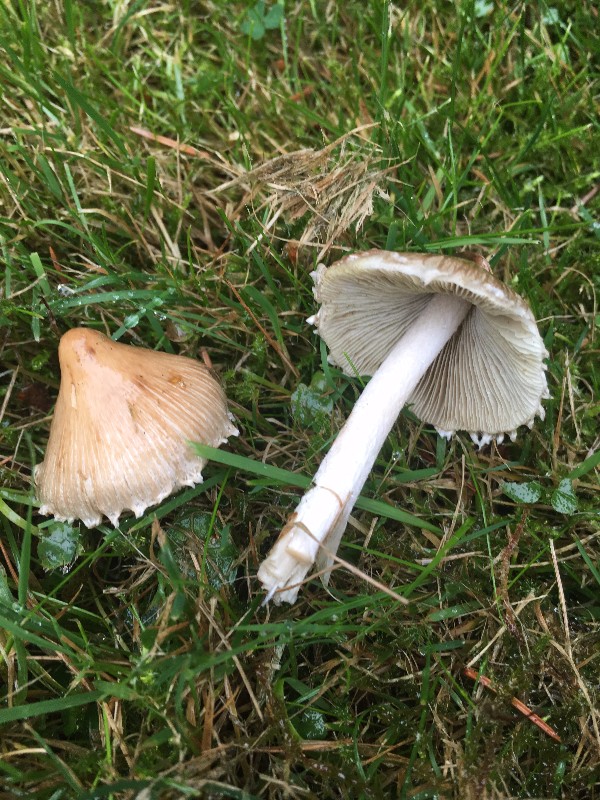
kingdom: Fungi
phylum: Basidiomycota
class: Agaricomycetes
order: Agaricales
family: Inocybaceae
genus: Inocybe
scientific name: Inocybe
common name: trævlhat
